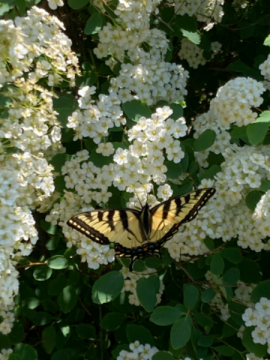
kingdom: Animalia
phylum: Arthropoda
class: Insecta
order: Lepidoptera
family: Papilionidae
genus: Pterourus
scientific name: Pterourus canadensis
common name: Canadian Tiger Swallowtail
